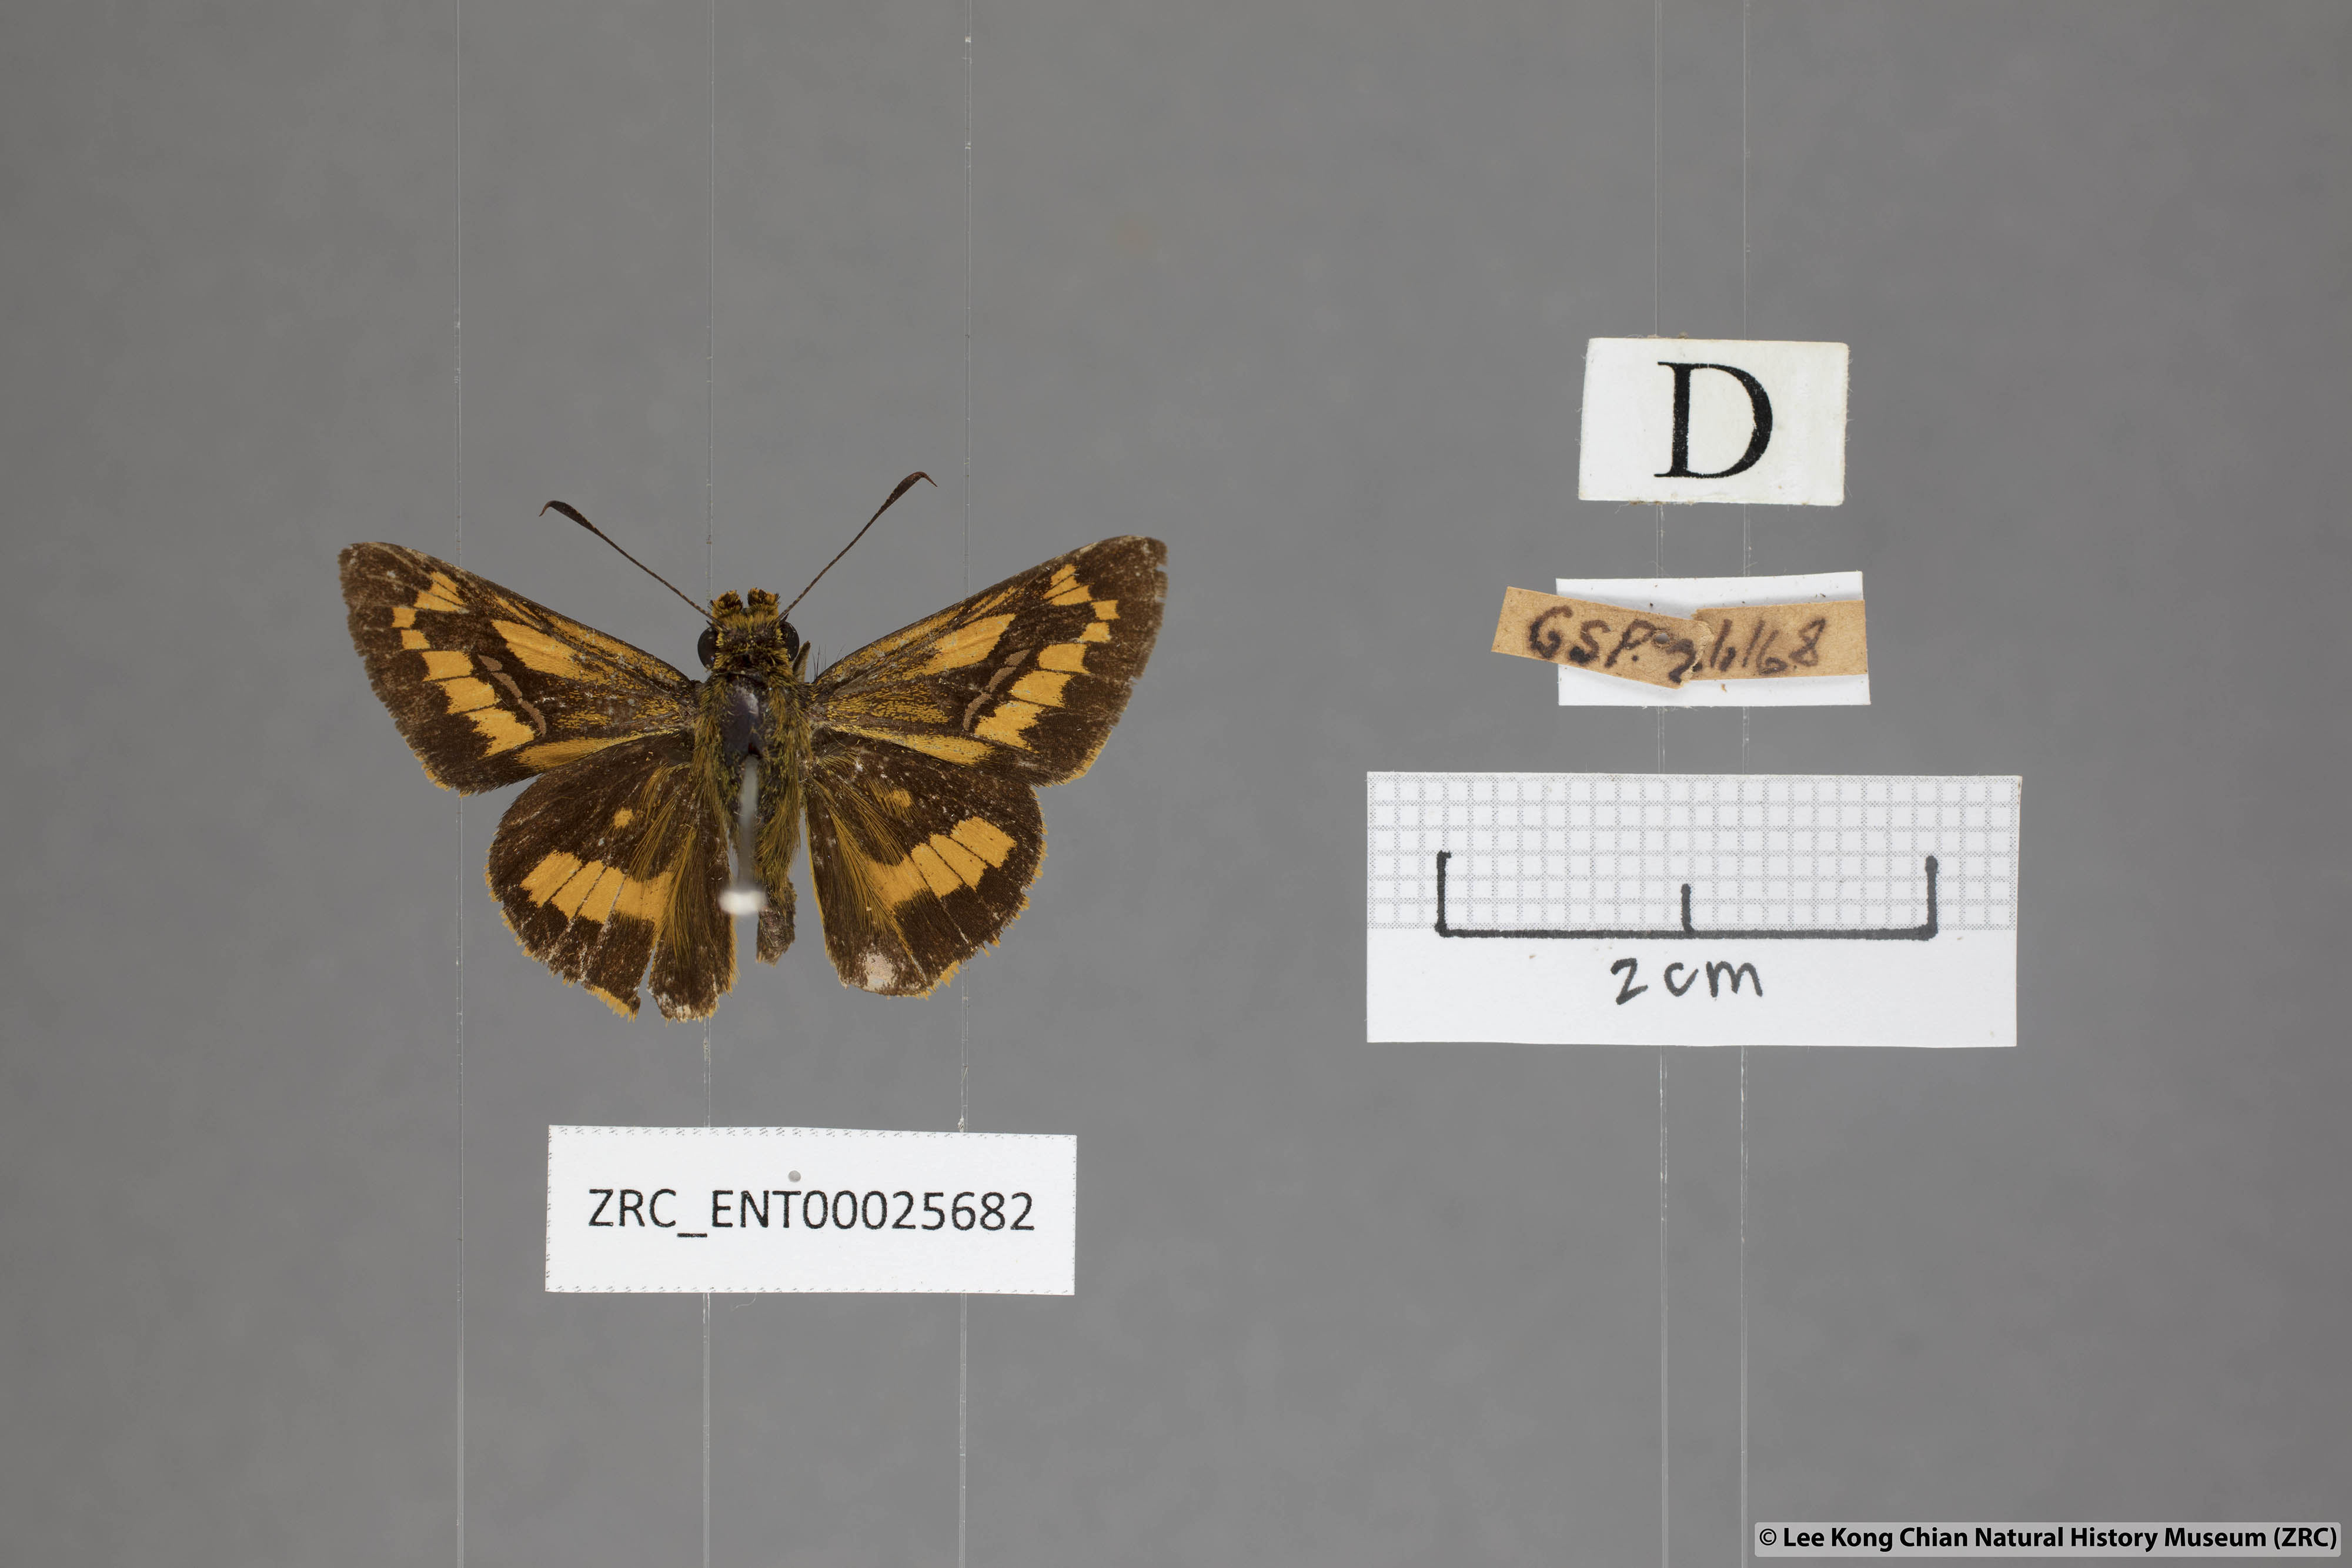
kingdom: Animalia
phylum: Arthropoda
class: Insecta
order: Lepidoptera
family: Hesperiidae
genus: Telicota
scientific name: Telicota ohara
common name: Dark palm dart
